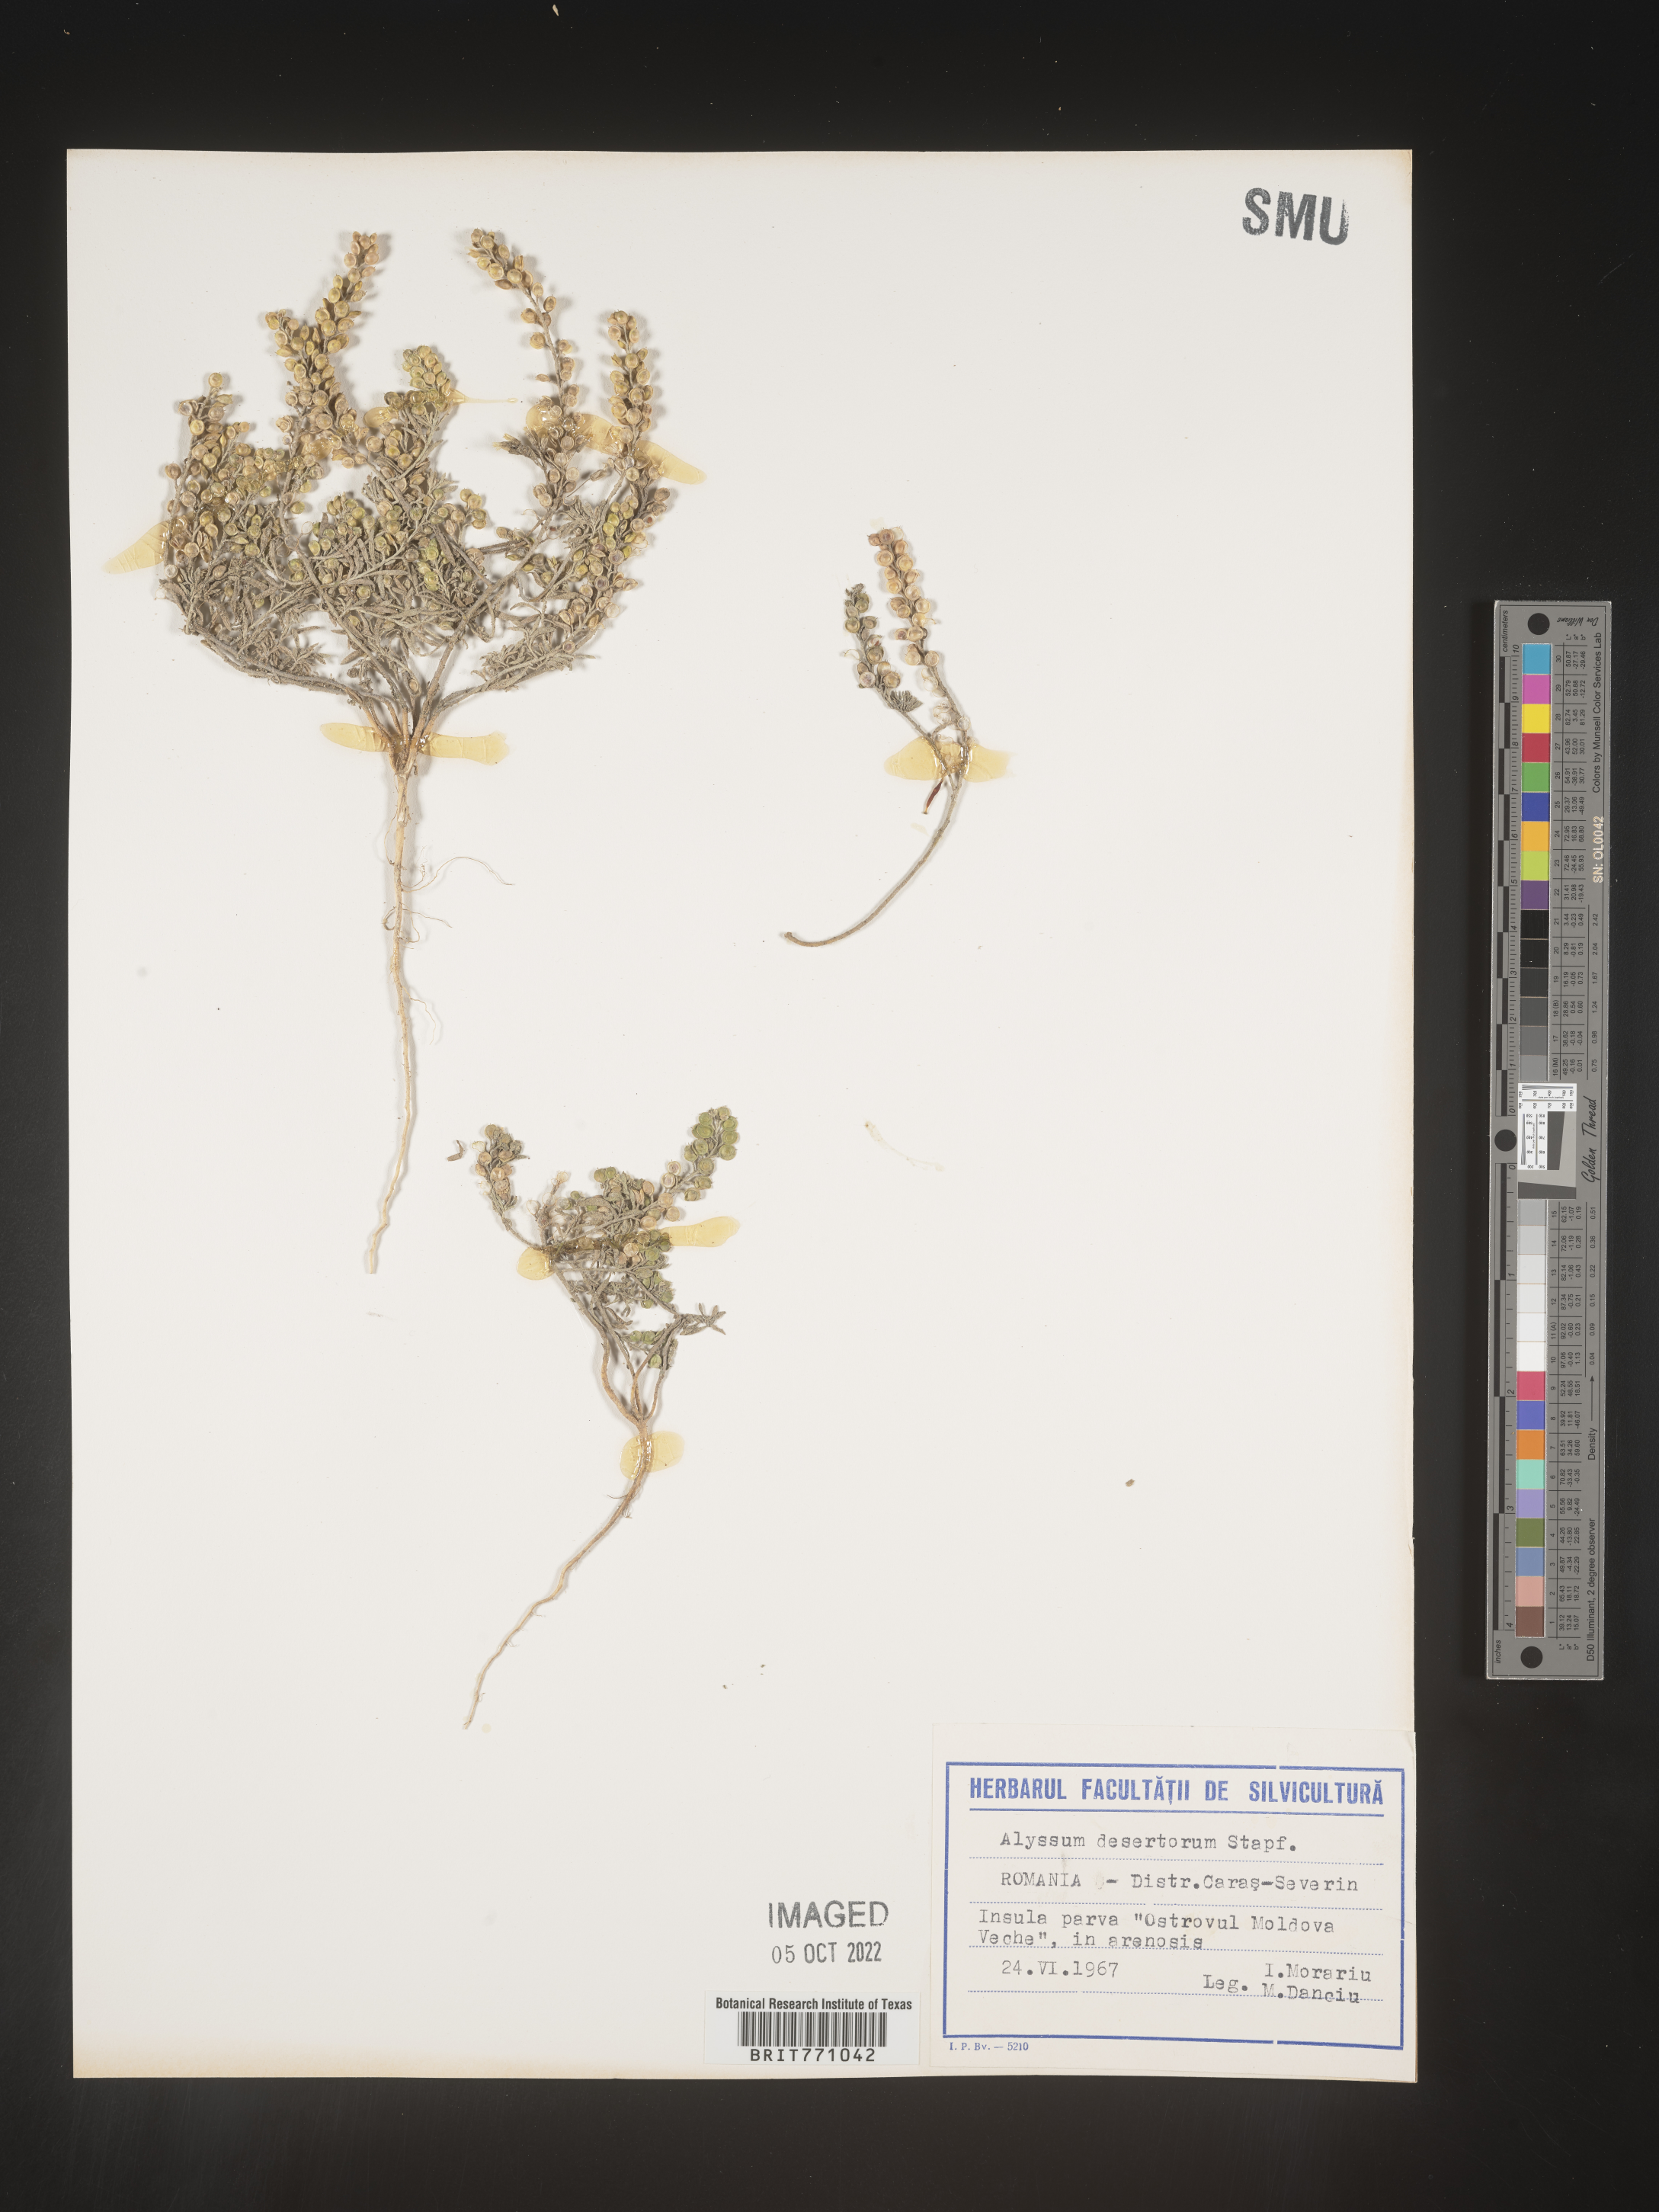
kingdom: Plantae
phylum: Tracheophyta
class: Magnoliopsida
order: Brassicales
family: Brassicaceae
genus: Alyssum
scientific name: Alyssum
